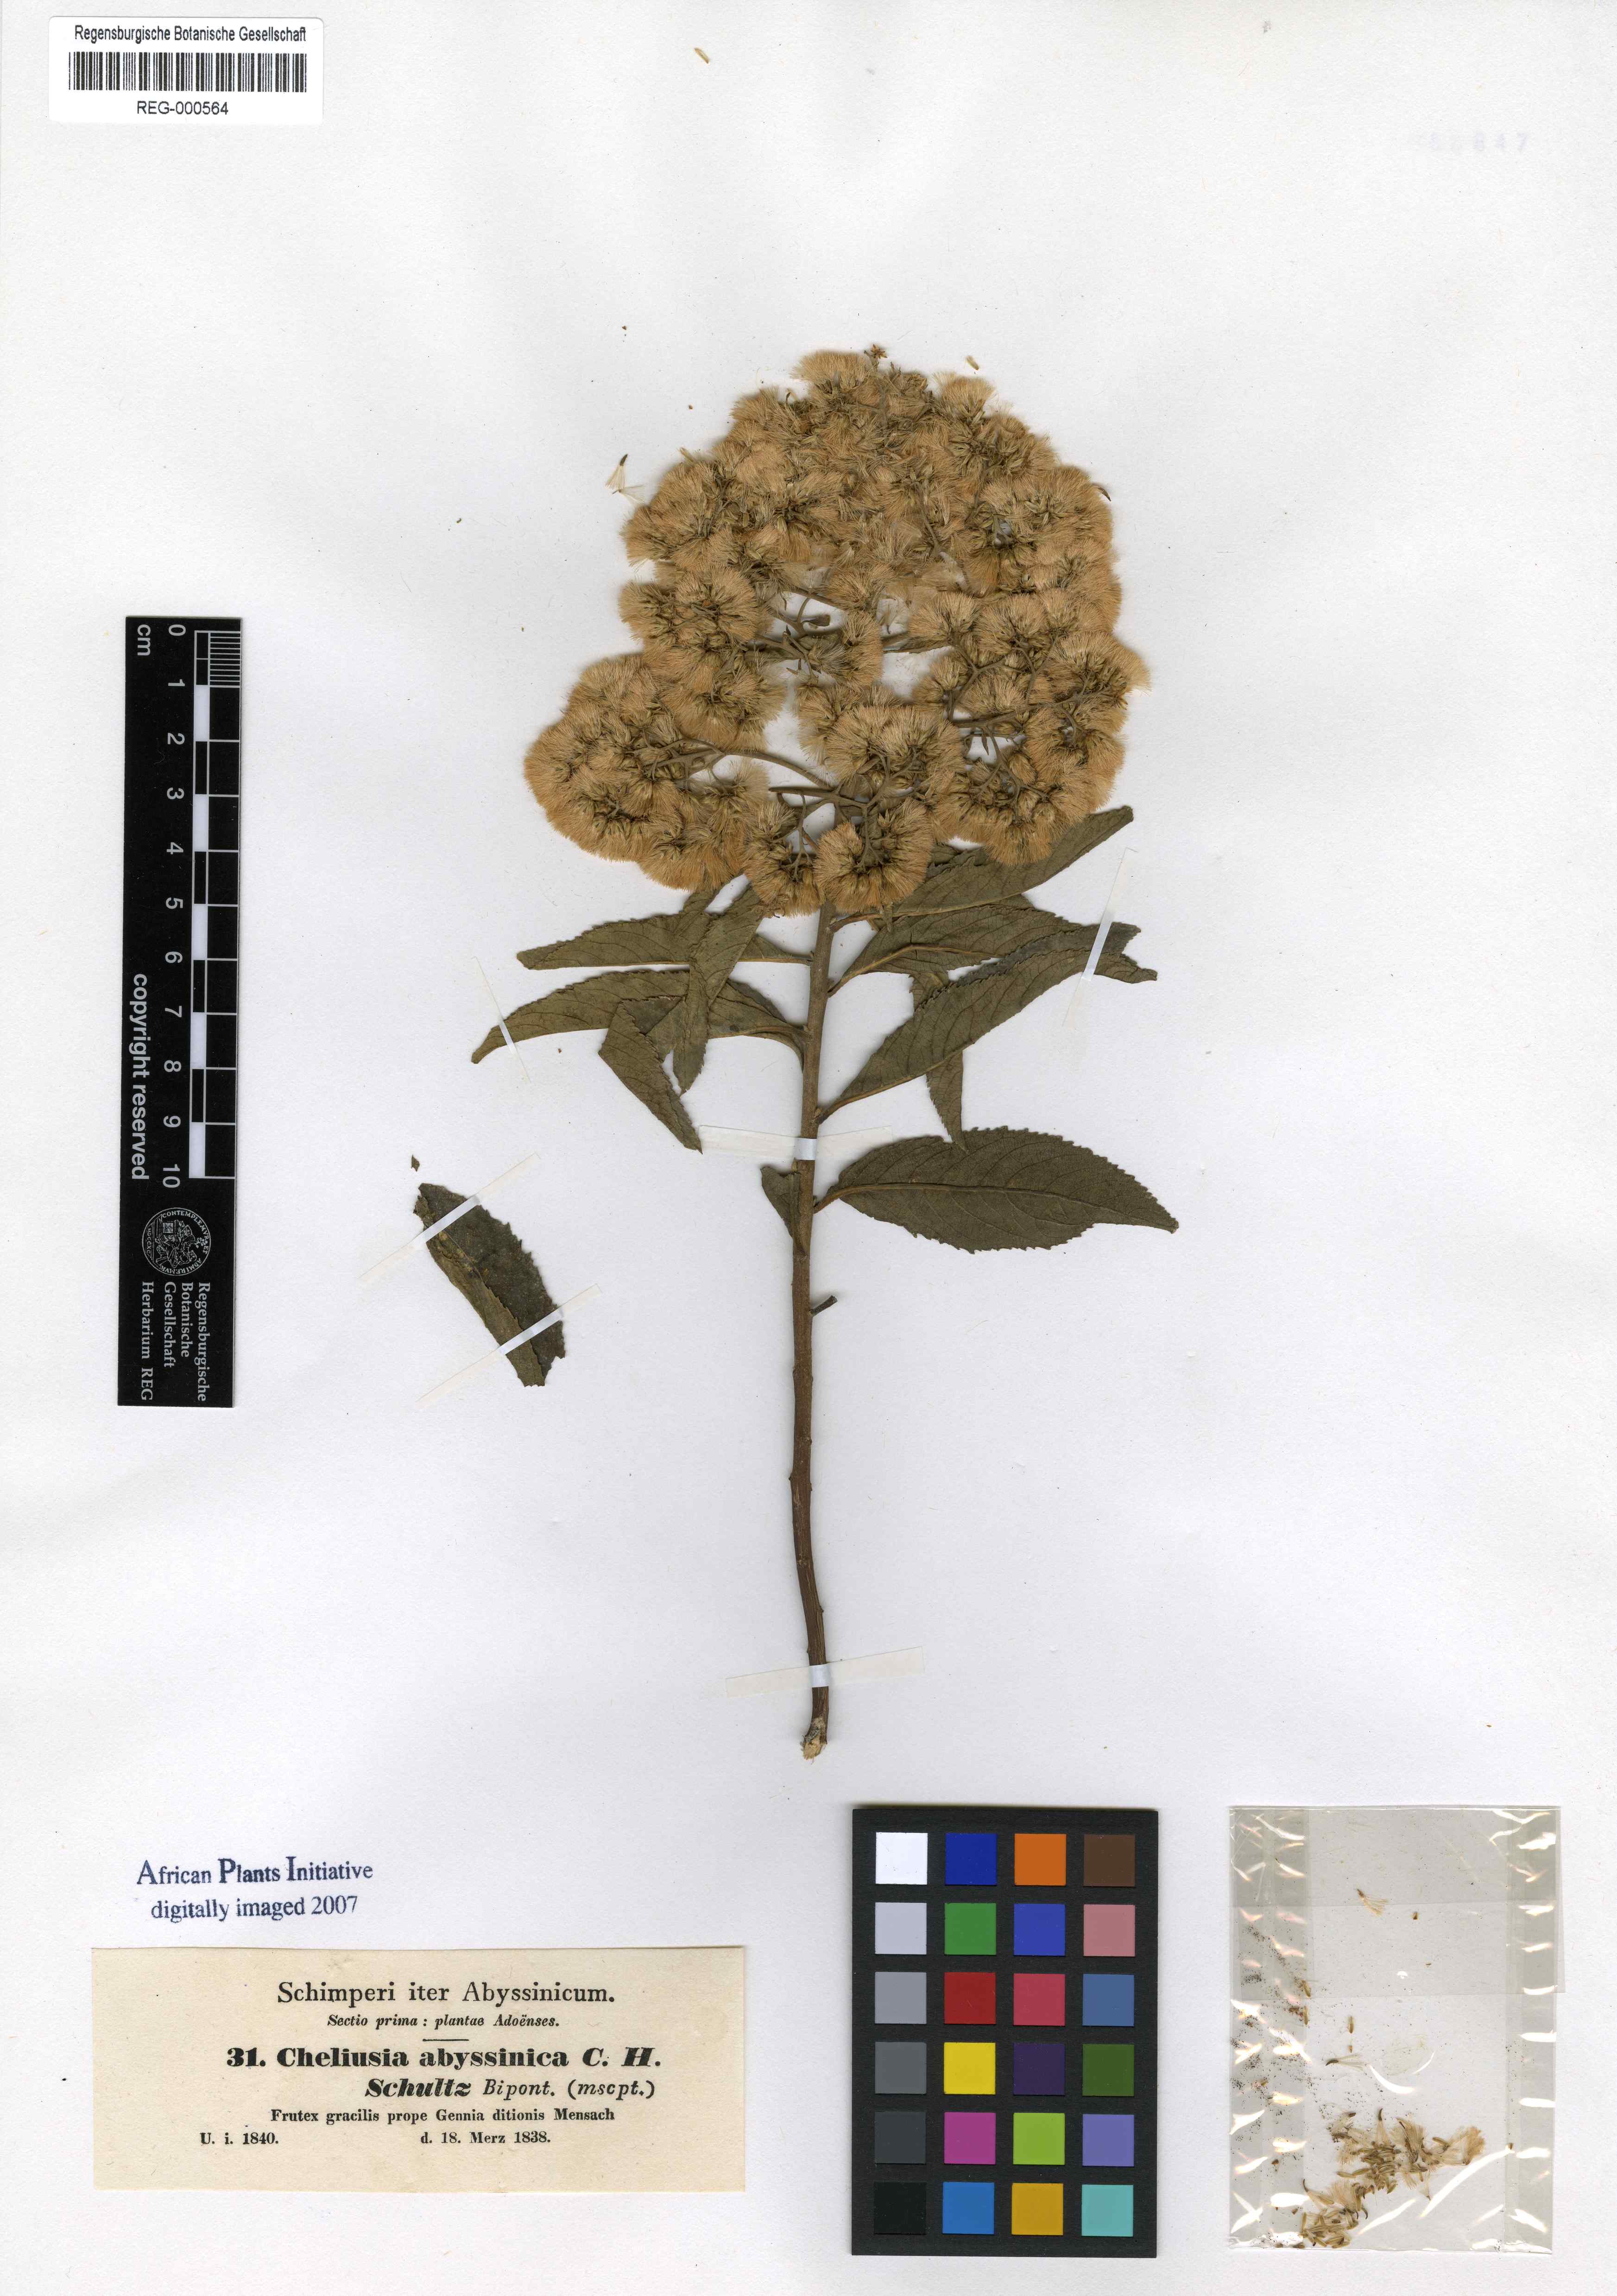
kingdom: Plantae
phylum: Tracheophyta
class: Magnoliopsida
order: Asterales
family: Asteraceae
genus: Gymnanthemum
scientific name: Gymnanthemum amygdalinum
